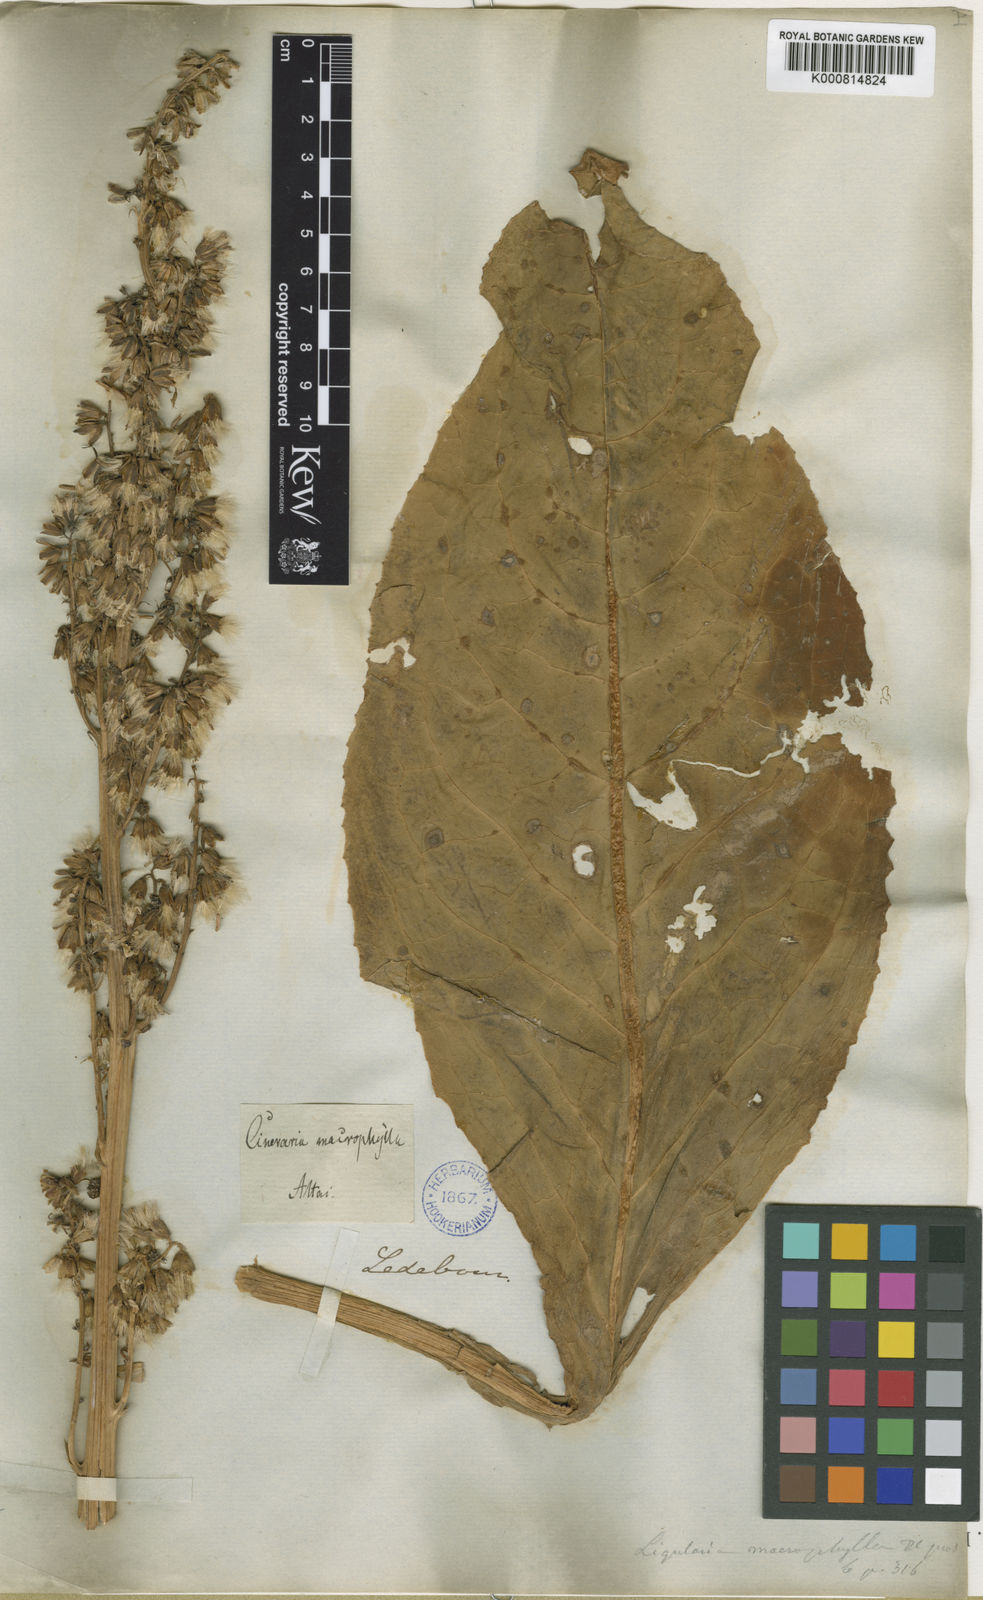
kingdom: Plantae
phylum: Tracheophyta
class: Magnoliopsida
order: Asterales
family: Asteraceae
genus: Ligularia
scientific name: Ligularia macrophylla
